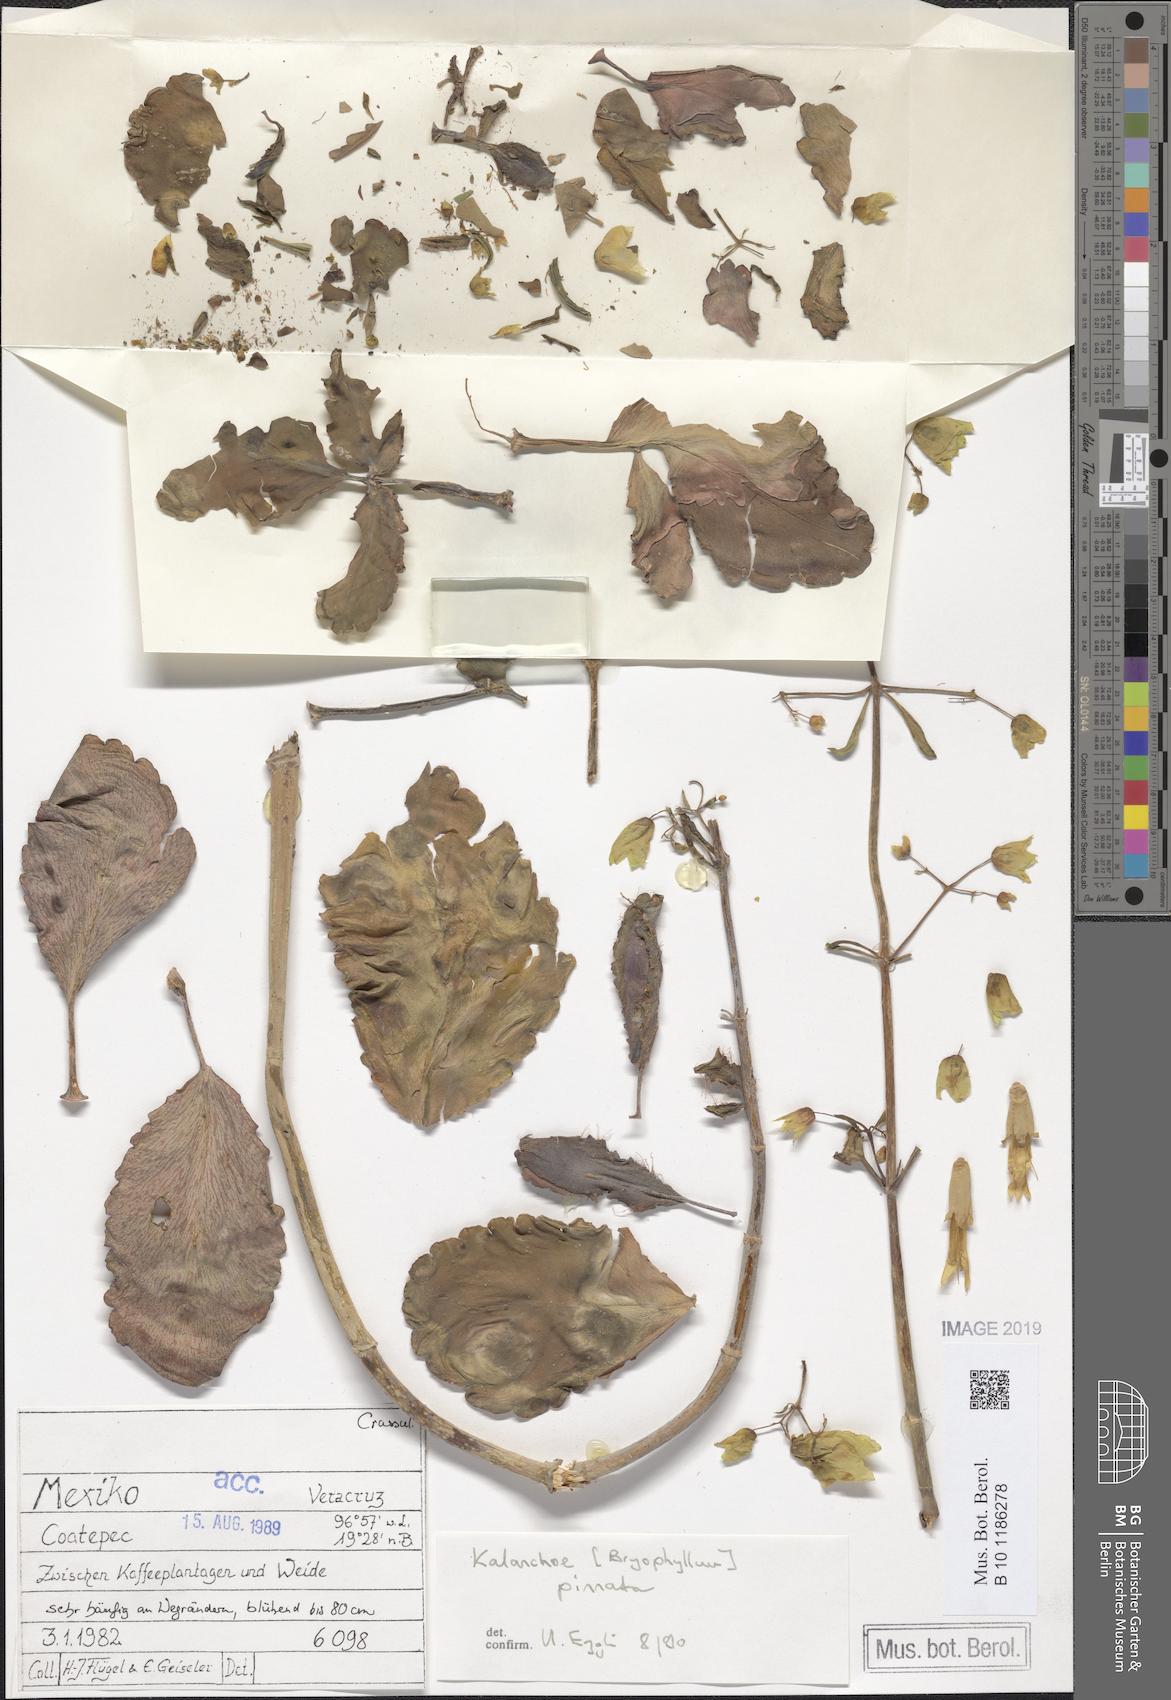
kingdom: Plantae
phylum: Tracheophyta
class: Magnoliopsida
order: Saxifragales
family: Crassulaceae
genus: Kalanchoe
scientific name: Kalanchoe pinnata
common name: Cathedral bells
